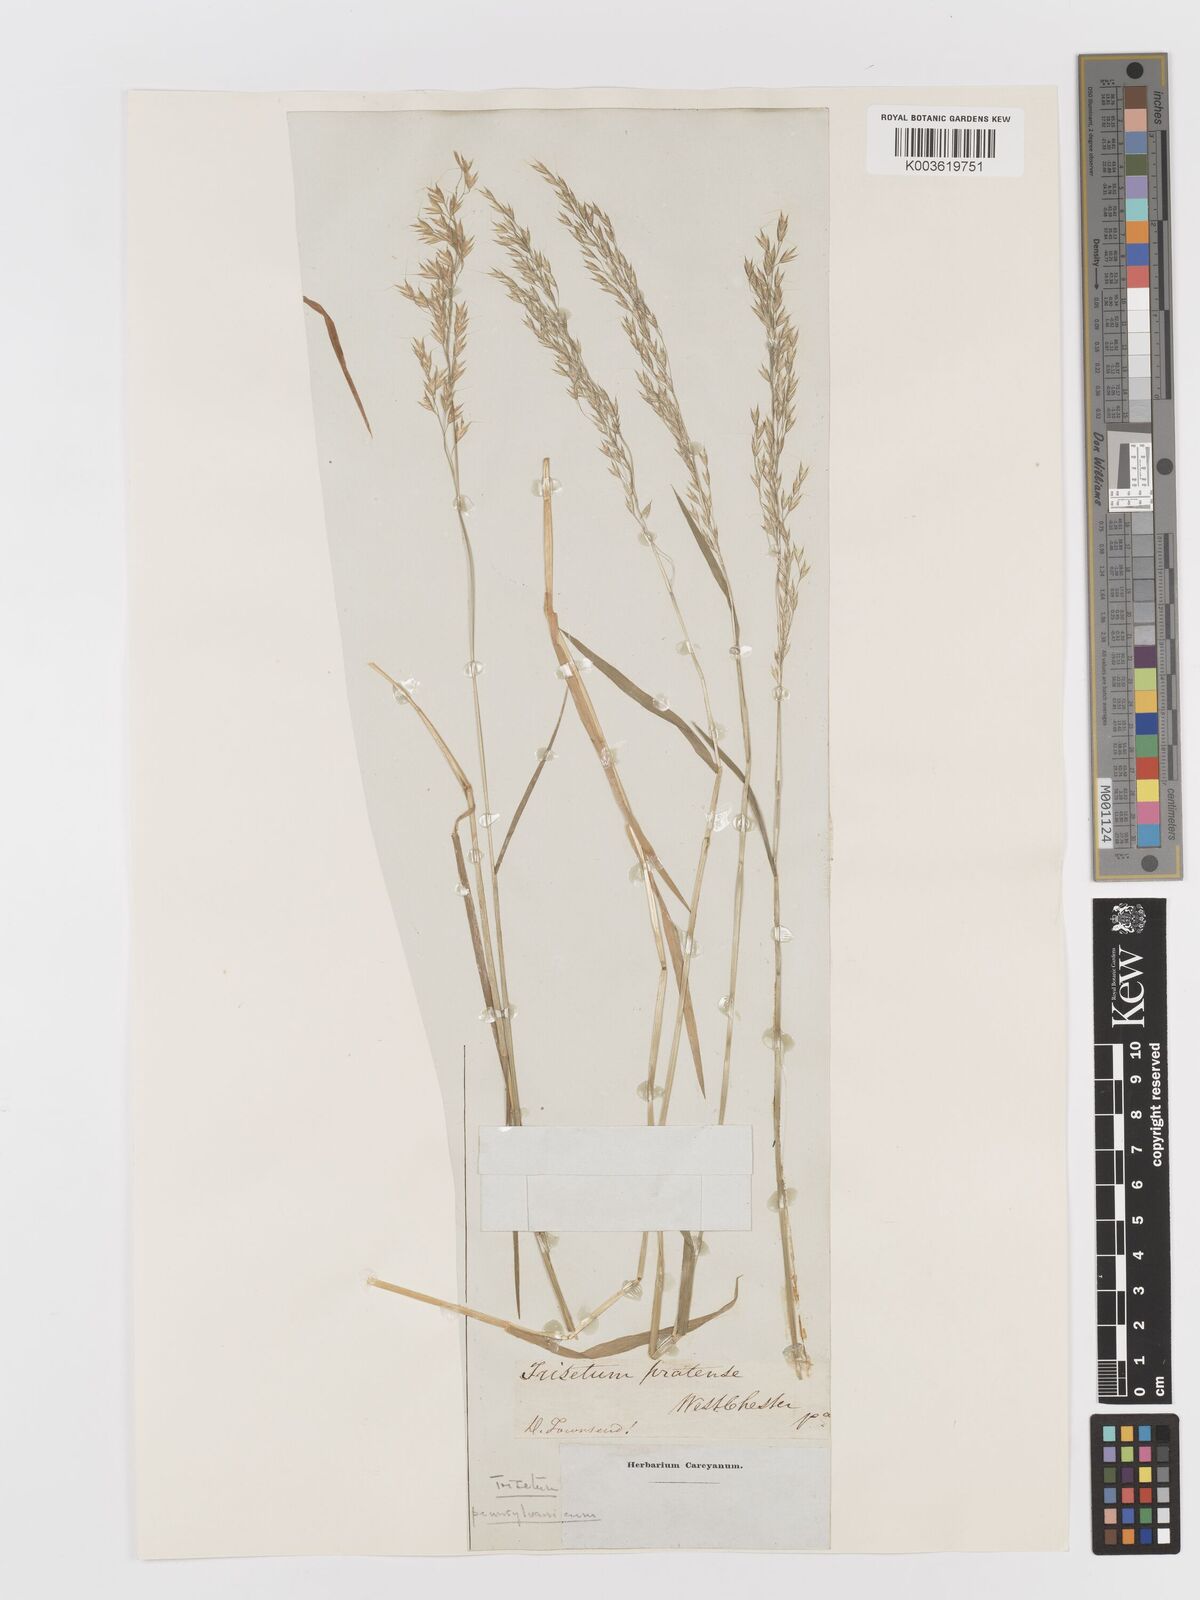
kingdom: Plantae
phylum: Tracheophyta
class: Liliopsida
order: Poales
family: Poaceae
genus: Sphenopholis
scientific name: Sphenopholis pensylvanica
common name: Swamp oats
